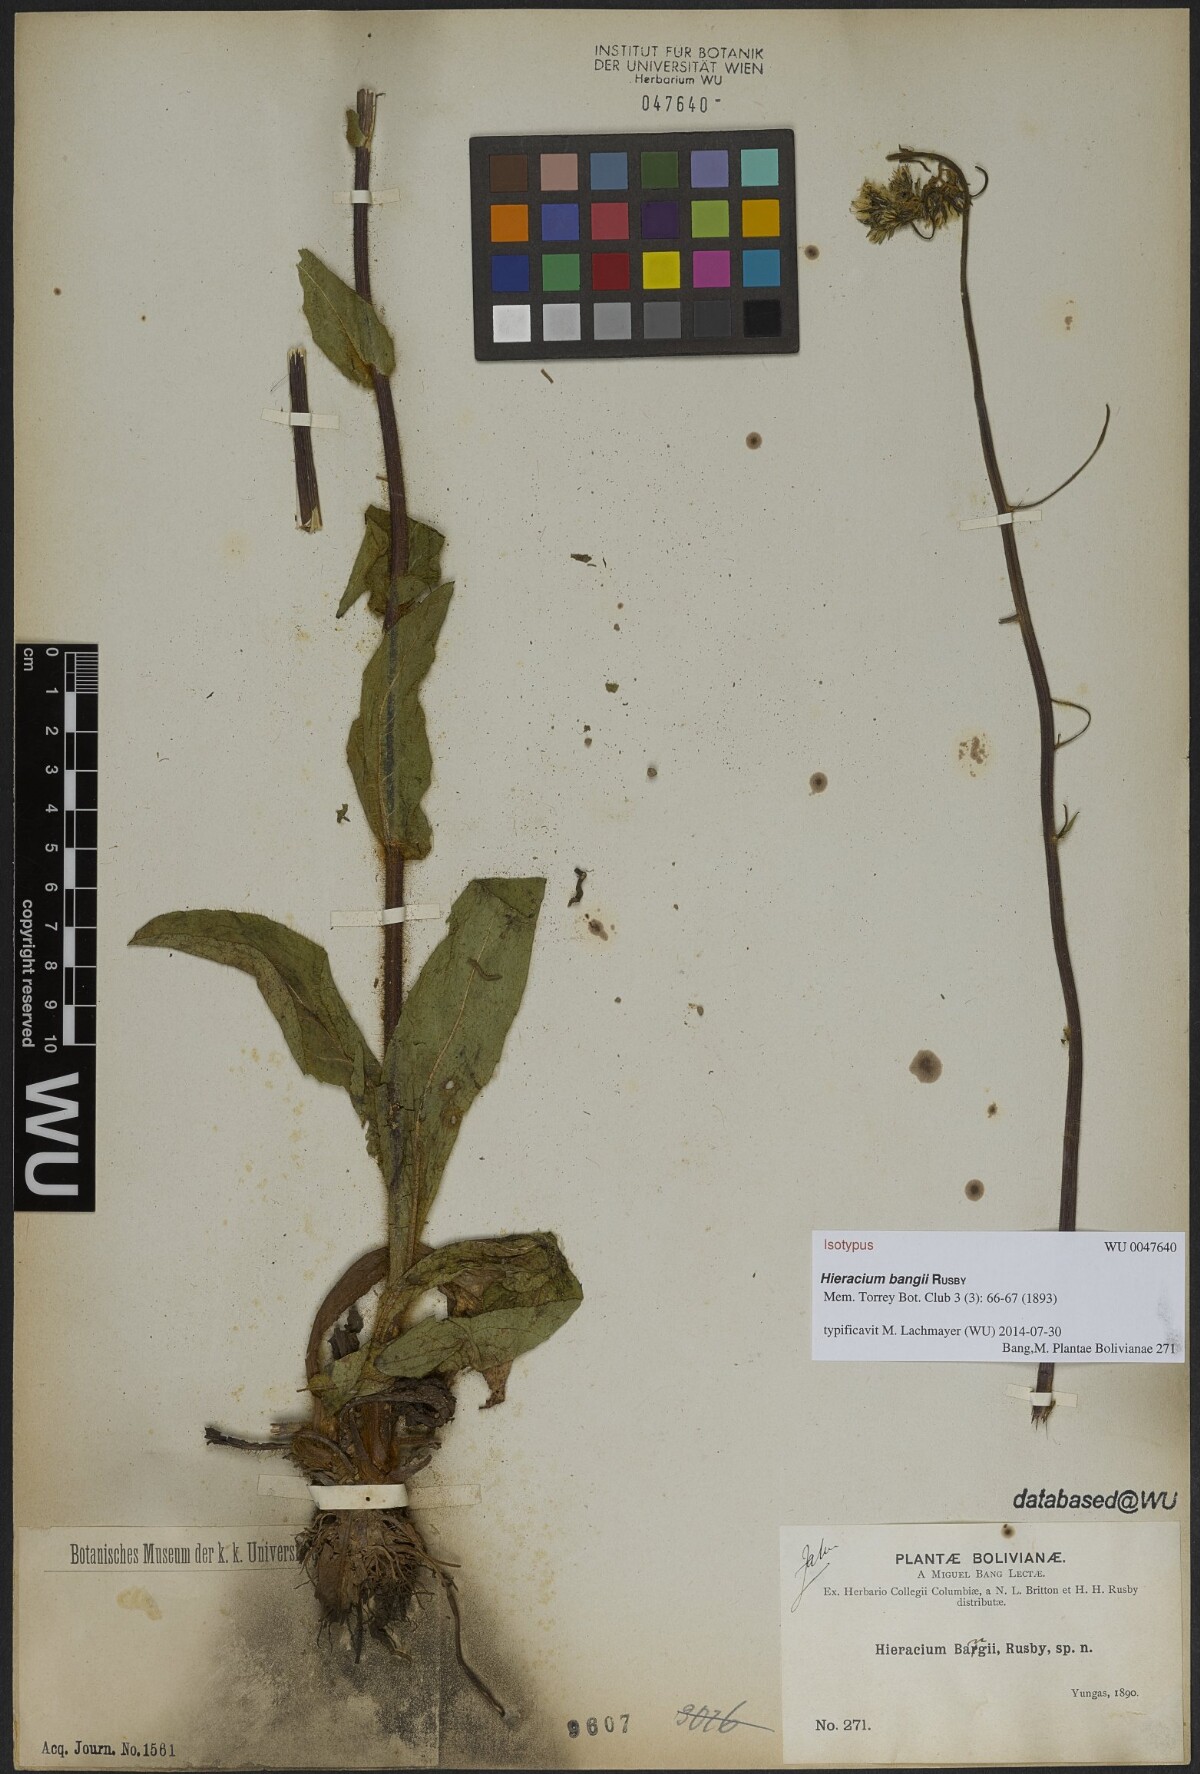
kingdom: Plantae
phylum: Tracheophyta
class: Magnoliopsida
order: Asterales
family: Asteraceae
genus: Hieracium
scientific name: Hieracium microcephalum
